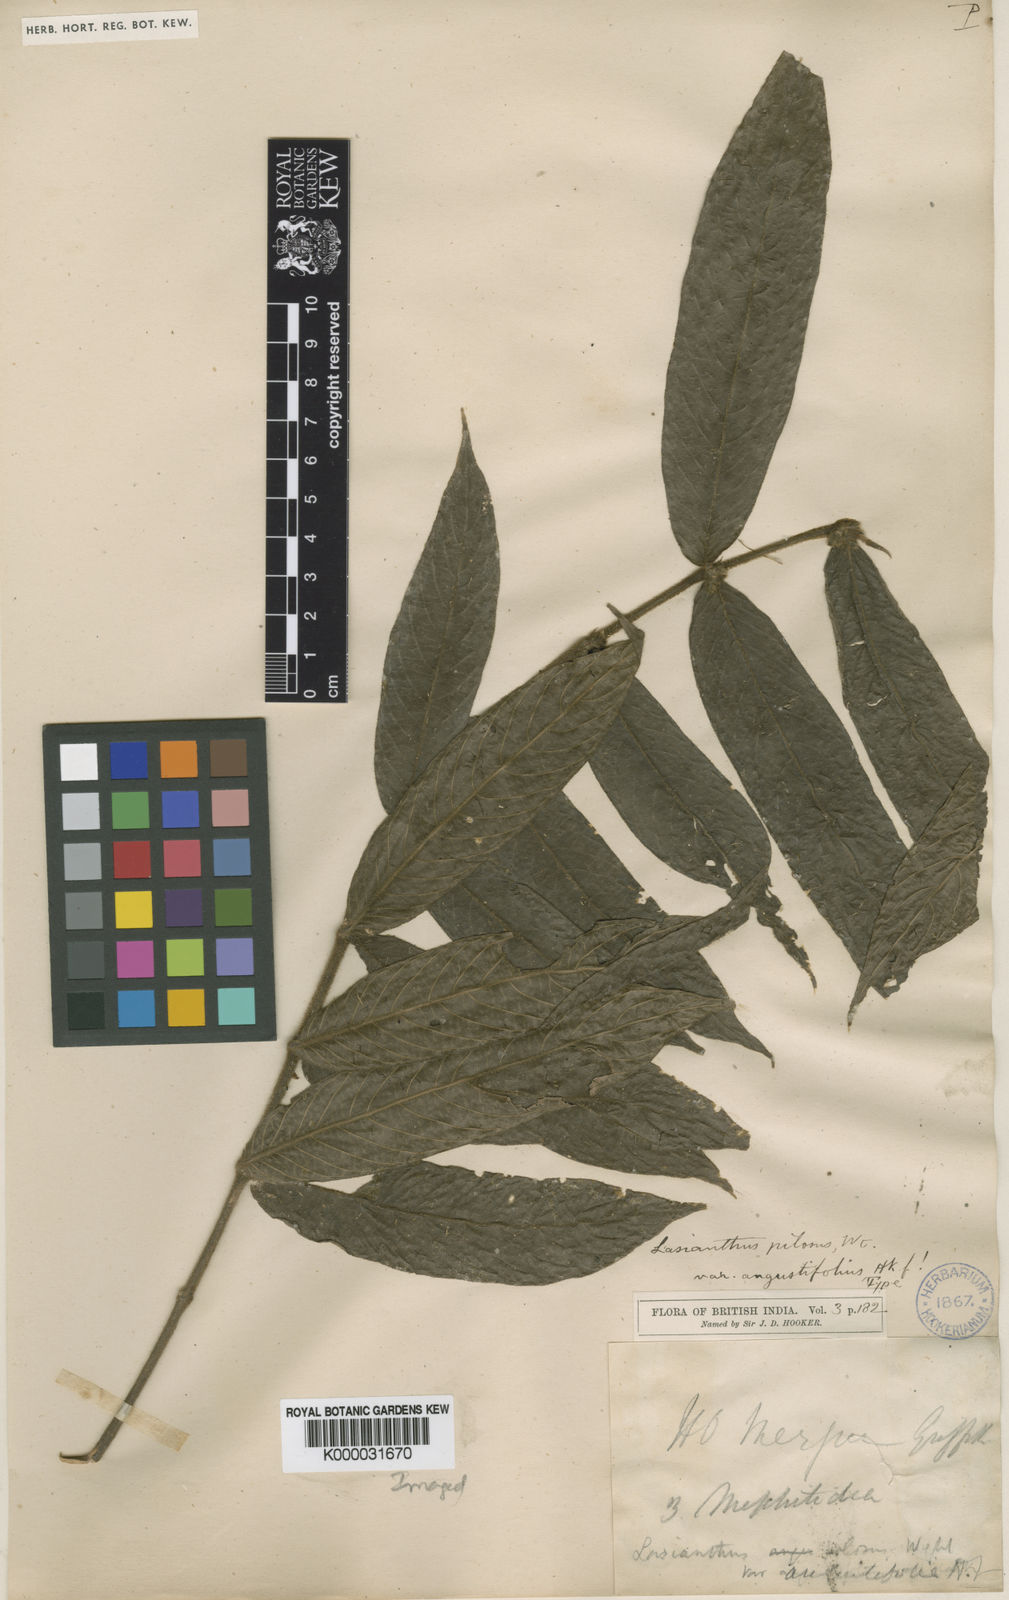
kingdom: Plantae
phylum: Tracheophyta
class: Magnoliopsida
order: Gentianales
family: Rubiaceae
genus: Lasianthus
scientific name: Lasianthus pilosus
